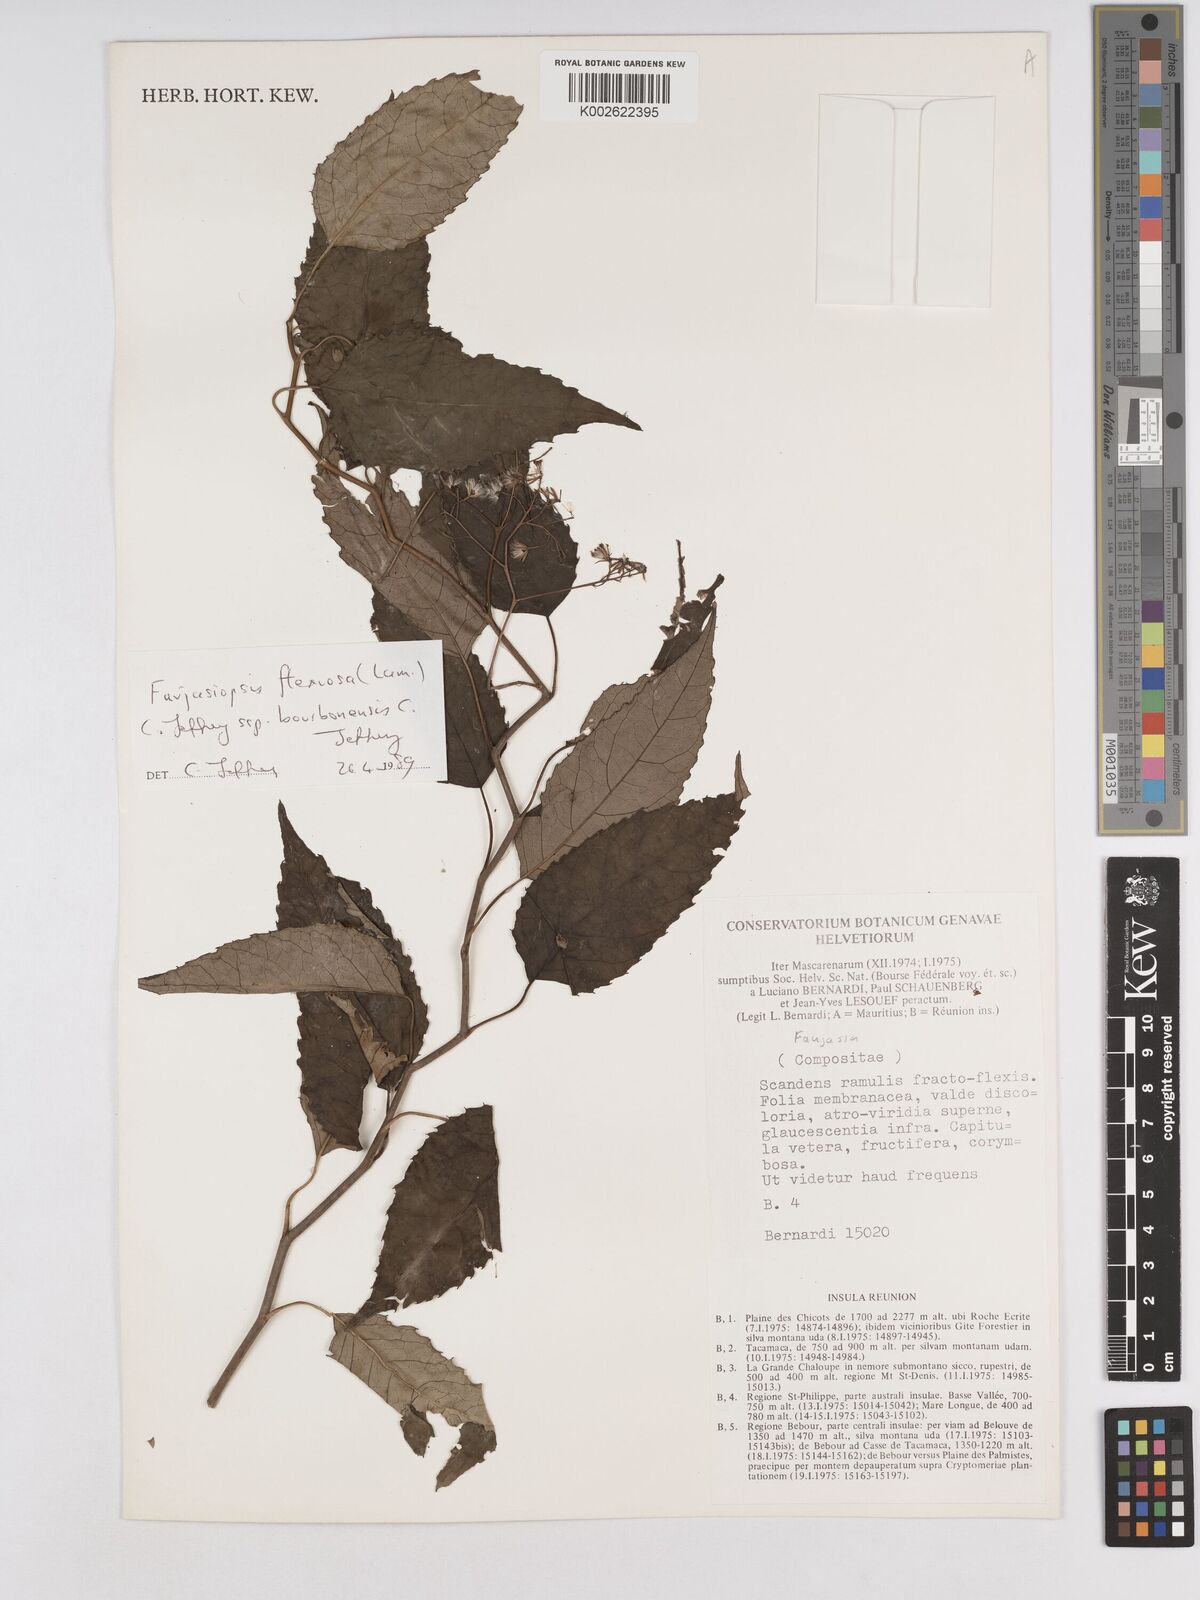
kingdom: Plantae
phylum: Tracheophyta
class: Magnoliopsida
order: Asterales
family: Asteraceae
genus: Faujasiopsis
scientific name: Faujasiopsis flexuosa
